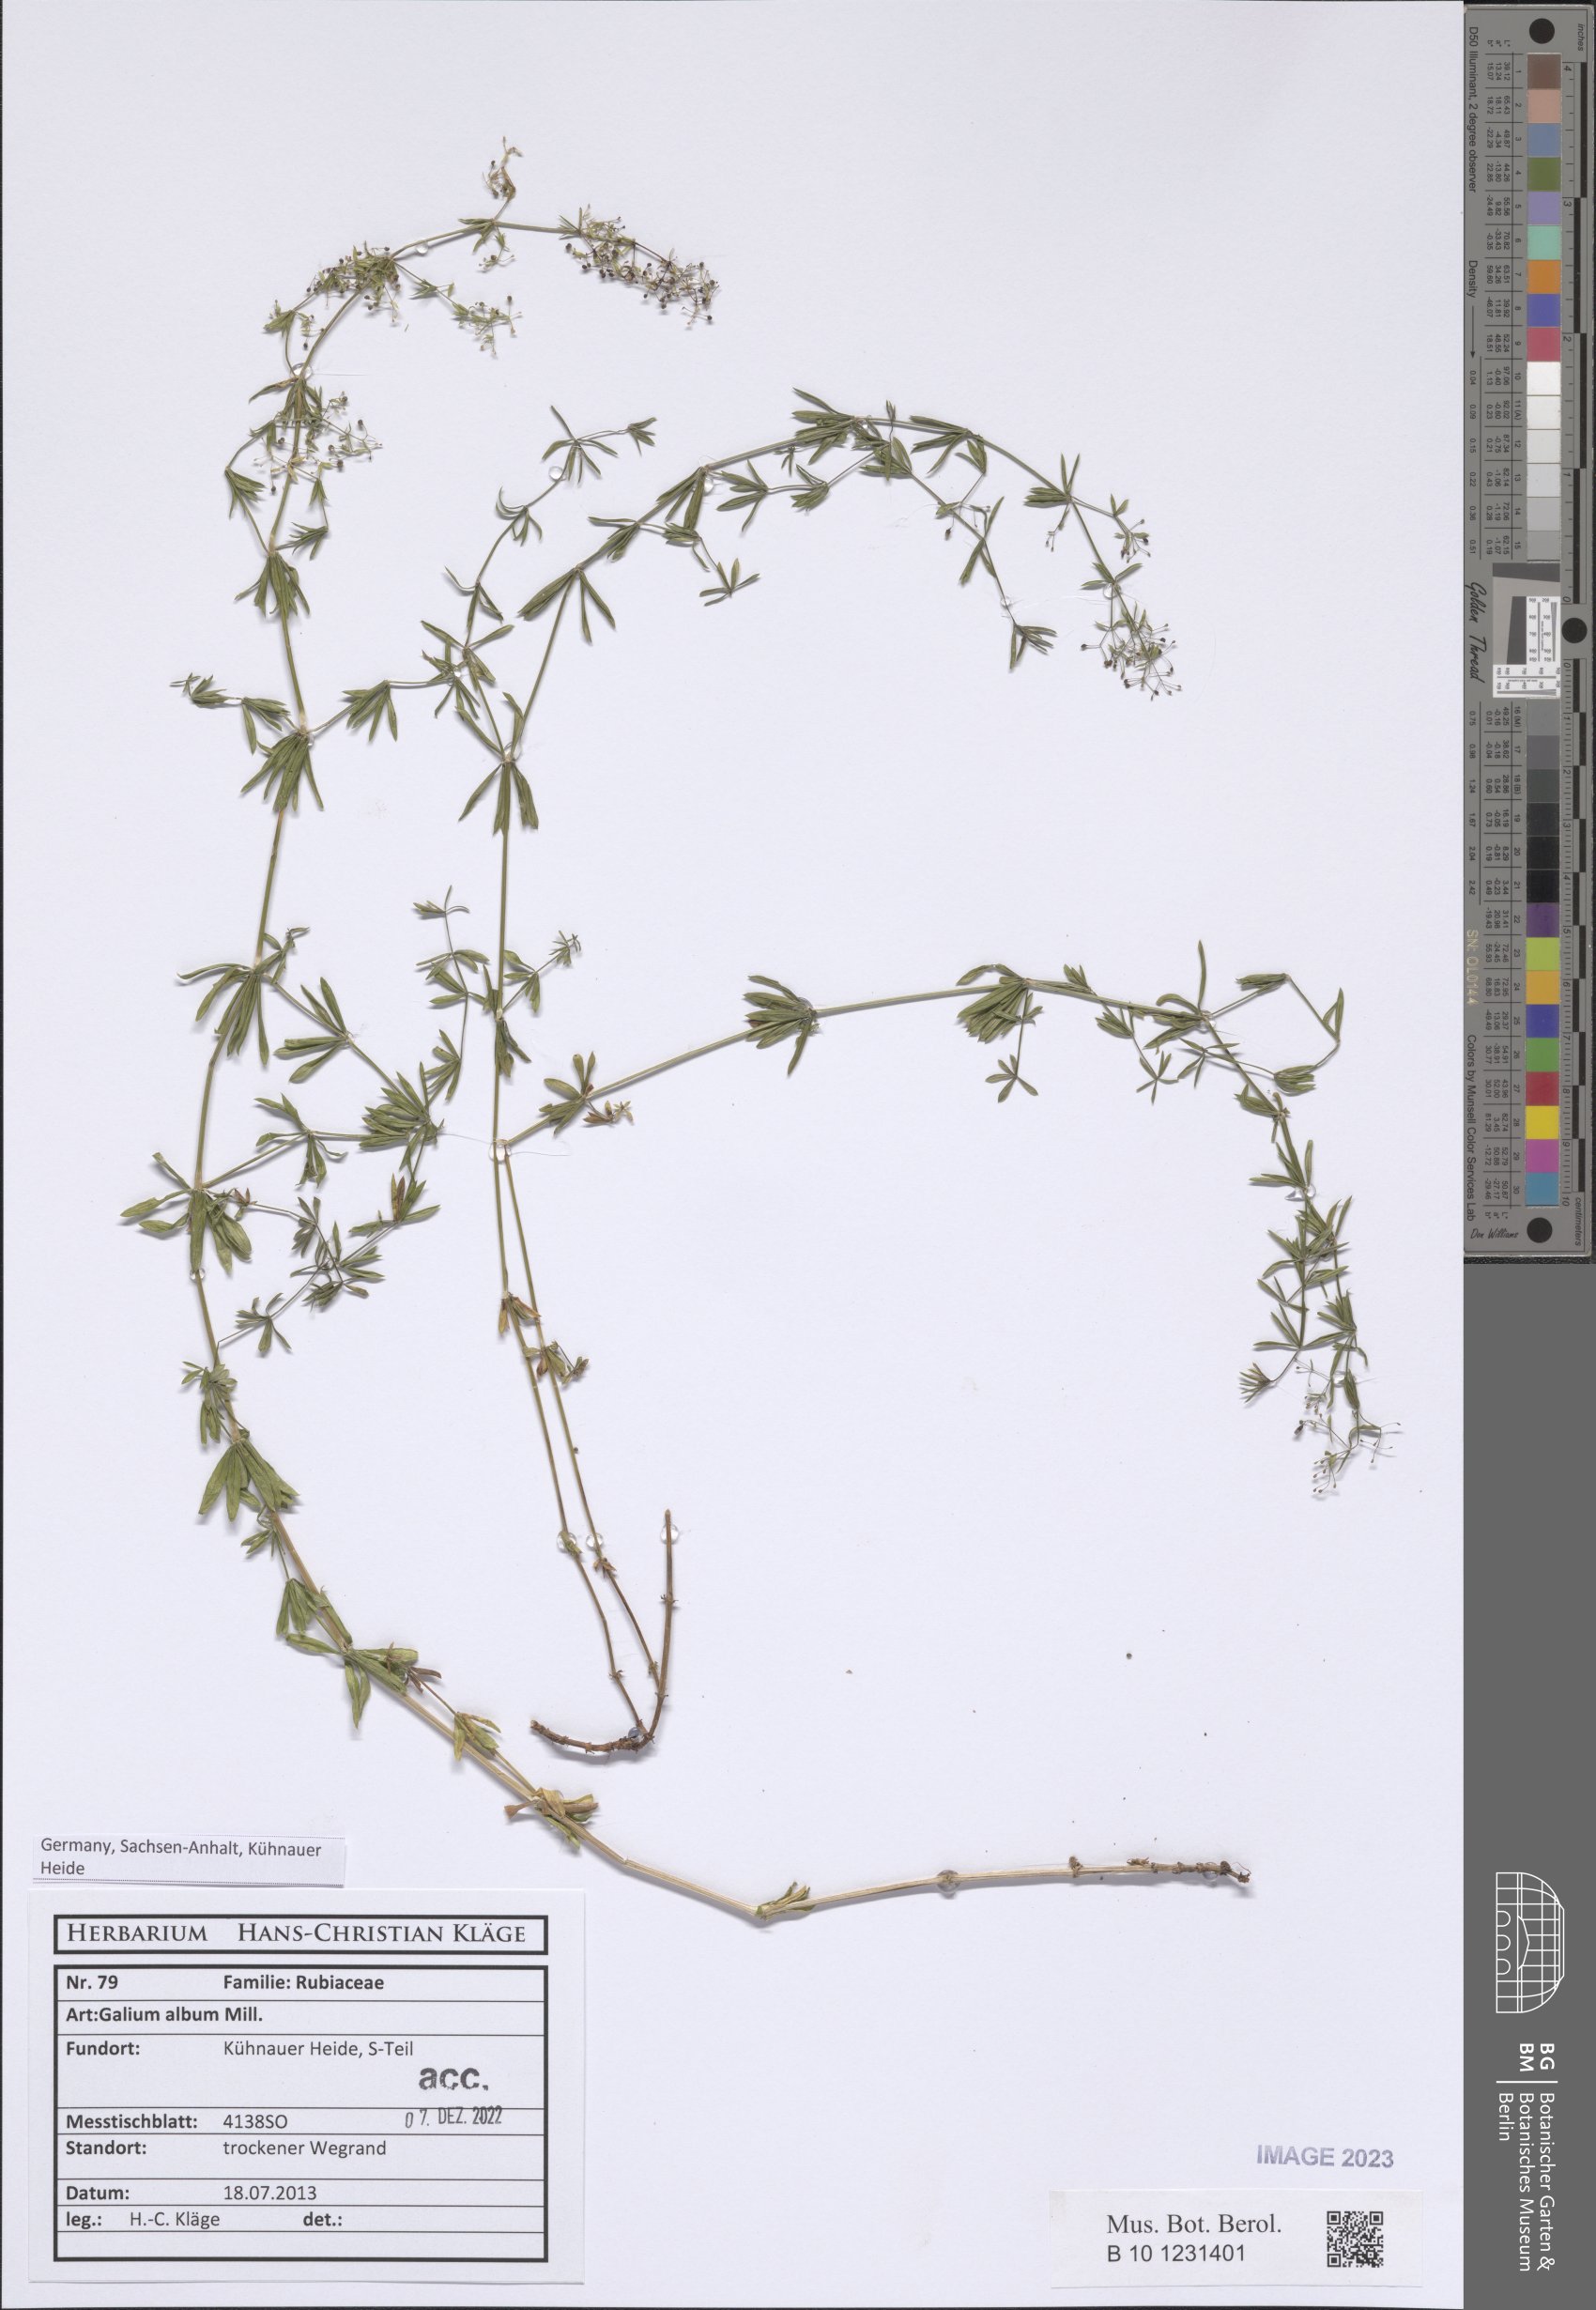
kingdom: Plantae
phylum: Tracheophyta
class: Magnoliopsida
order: Gentianales
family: Rubiaceae
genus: Galium
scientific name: Galium album
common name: White bedstraw
